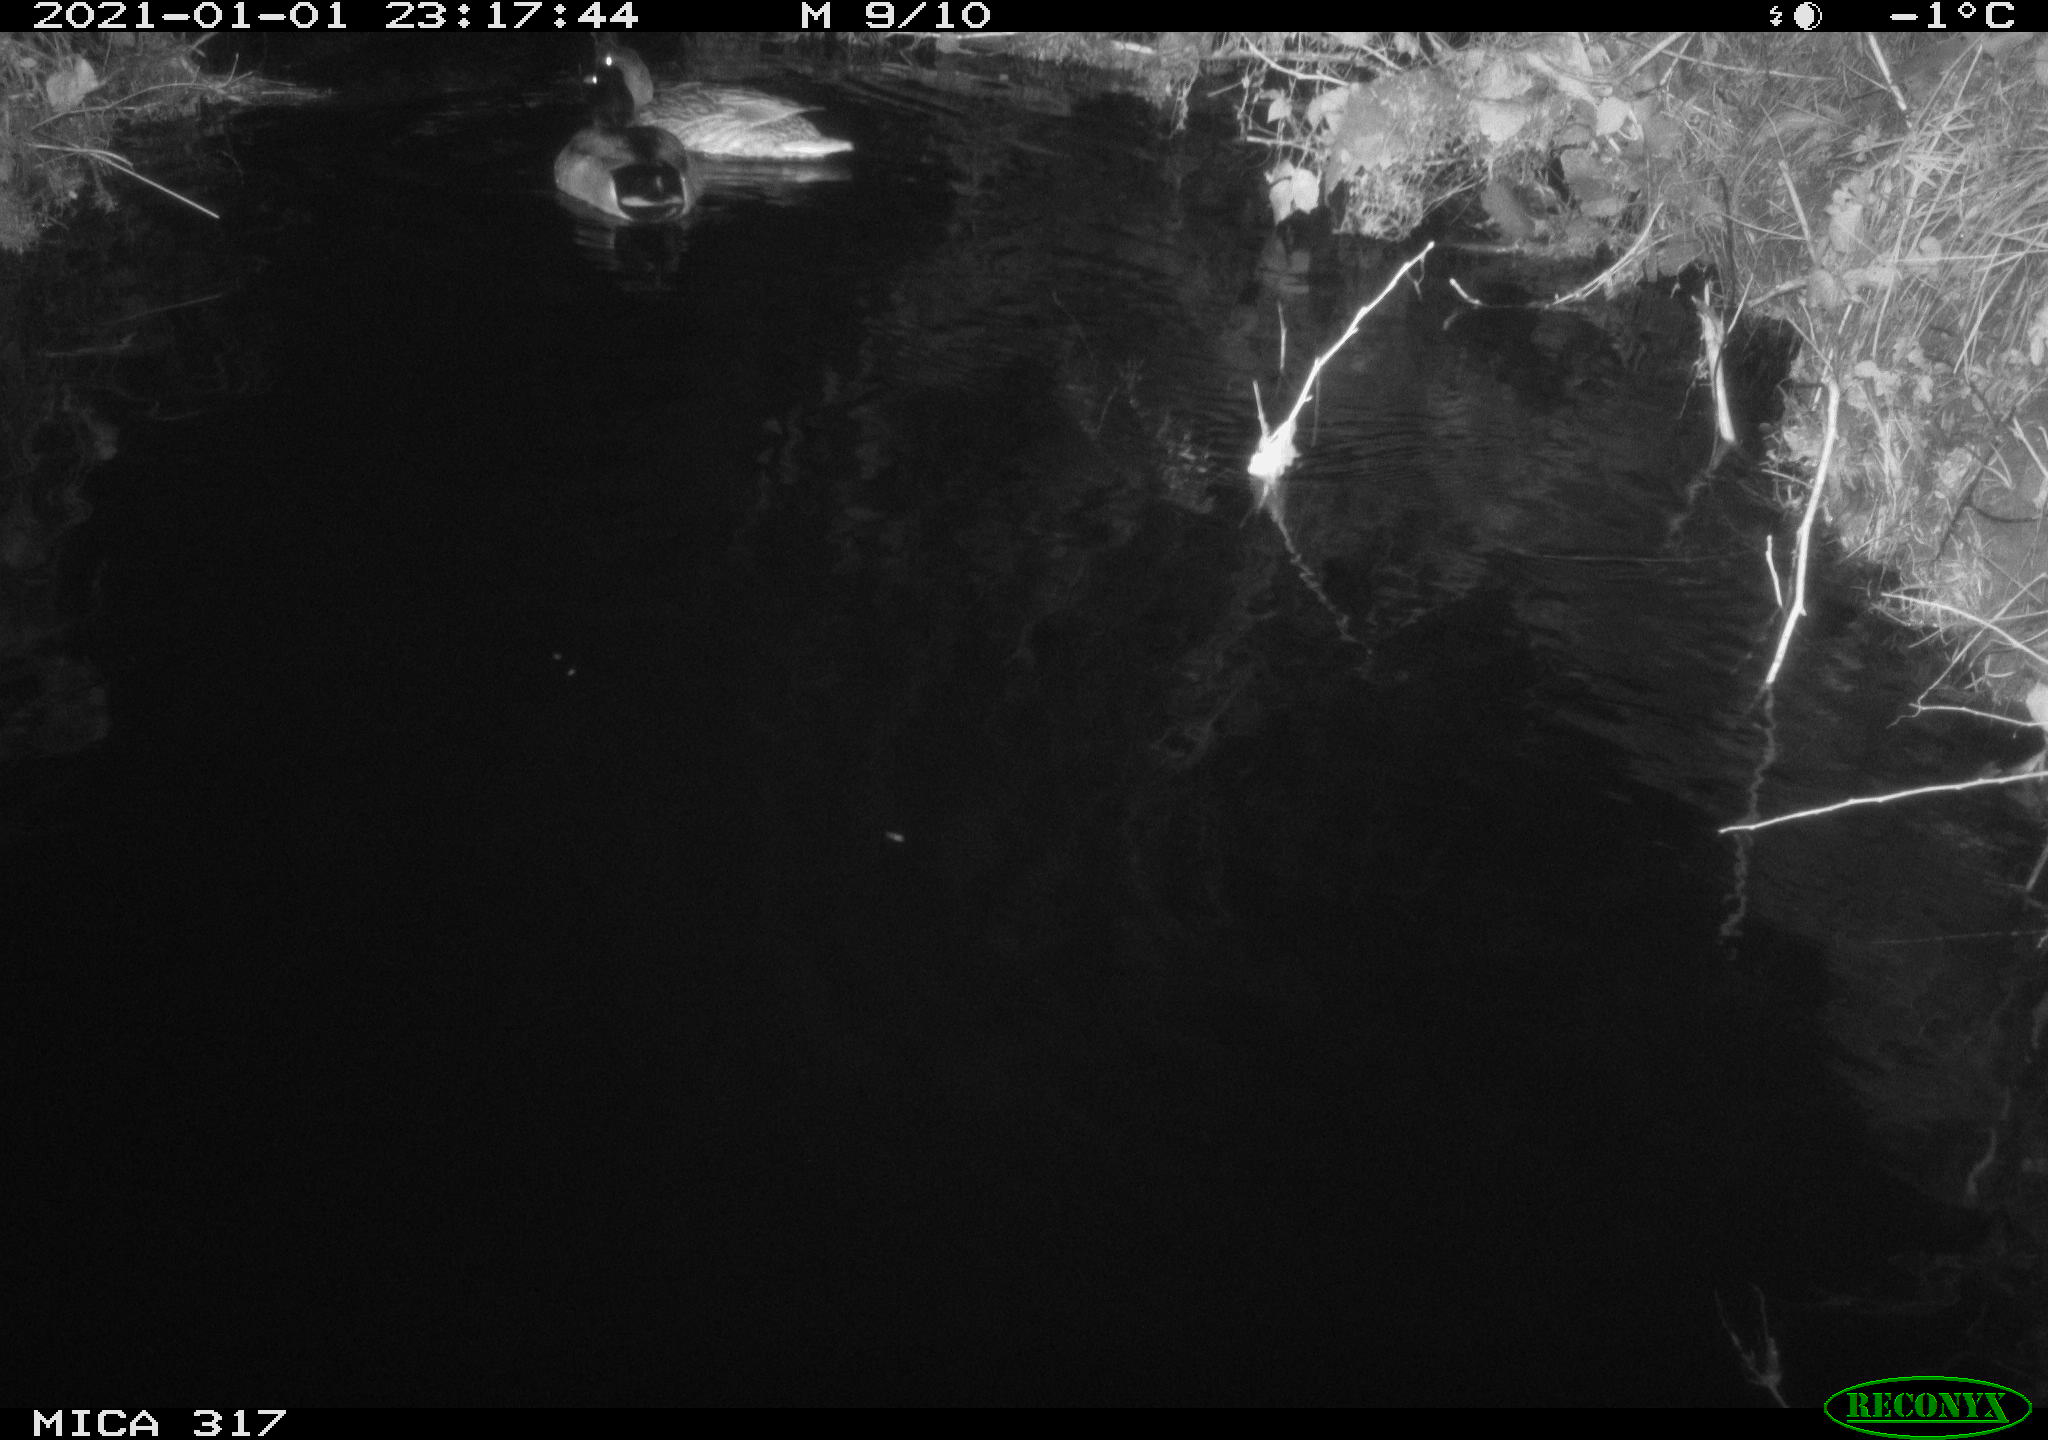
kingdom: Animalia
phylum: Chordata
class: Aves
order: Anseriformes
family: Anatidae
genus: Anas
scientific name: Anas platyrhynchos
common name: Mallard
